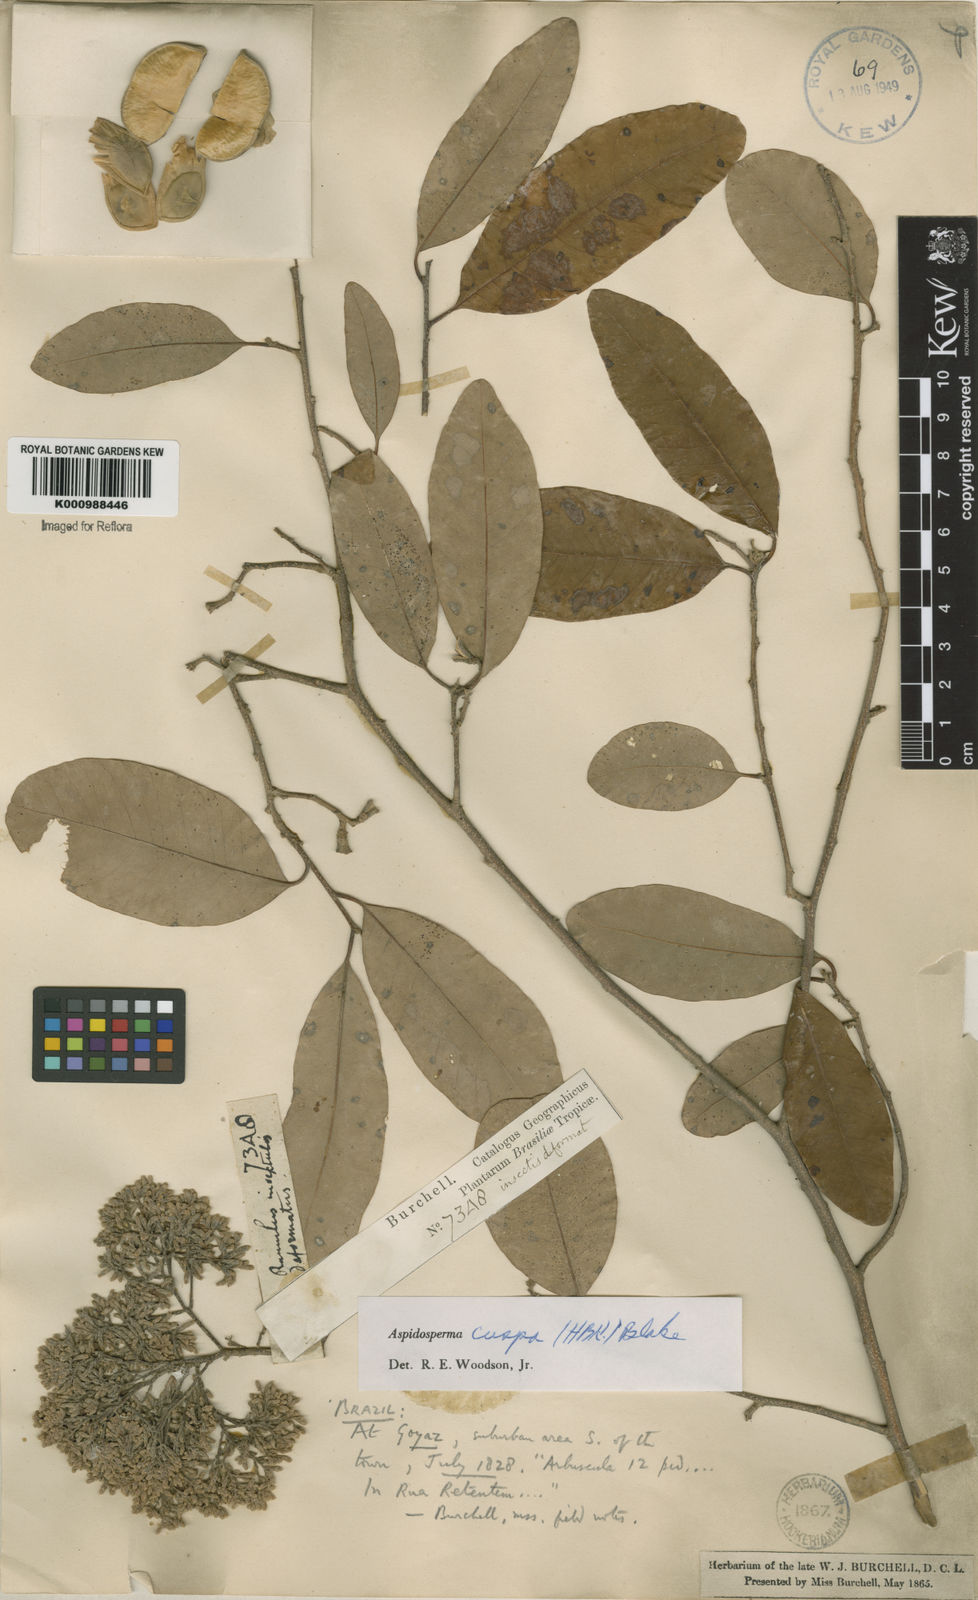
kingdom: Plantae
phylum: Tracheophyta
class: Magnoliopsida
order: Gentianales
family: Apocynaceae
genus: Aspidosperma
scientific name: Aspidosperma cuspa
